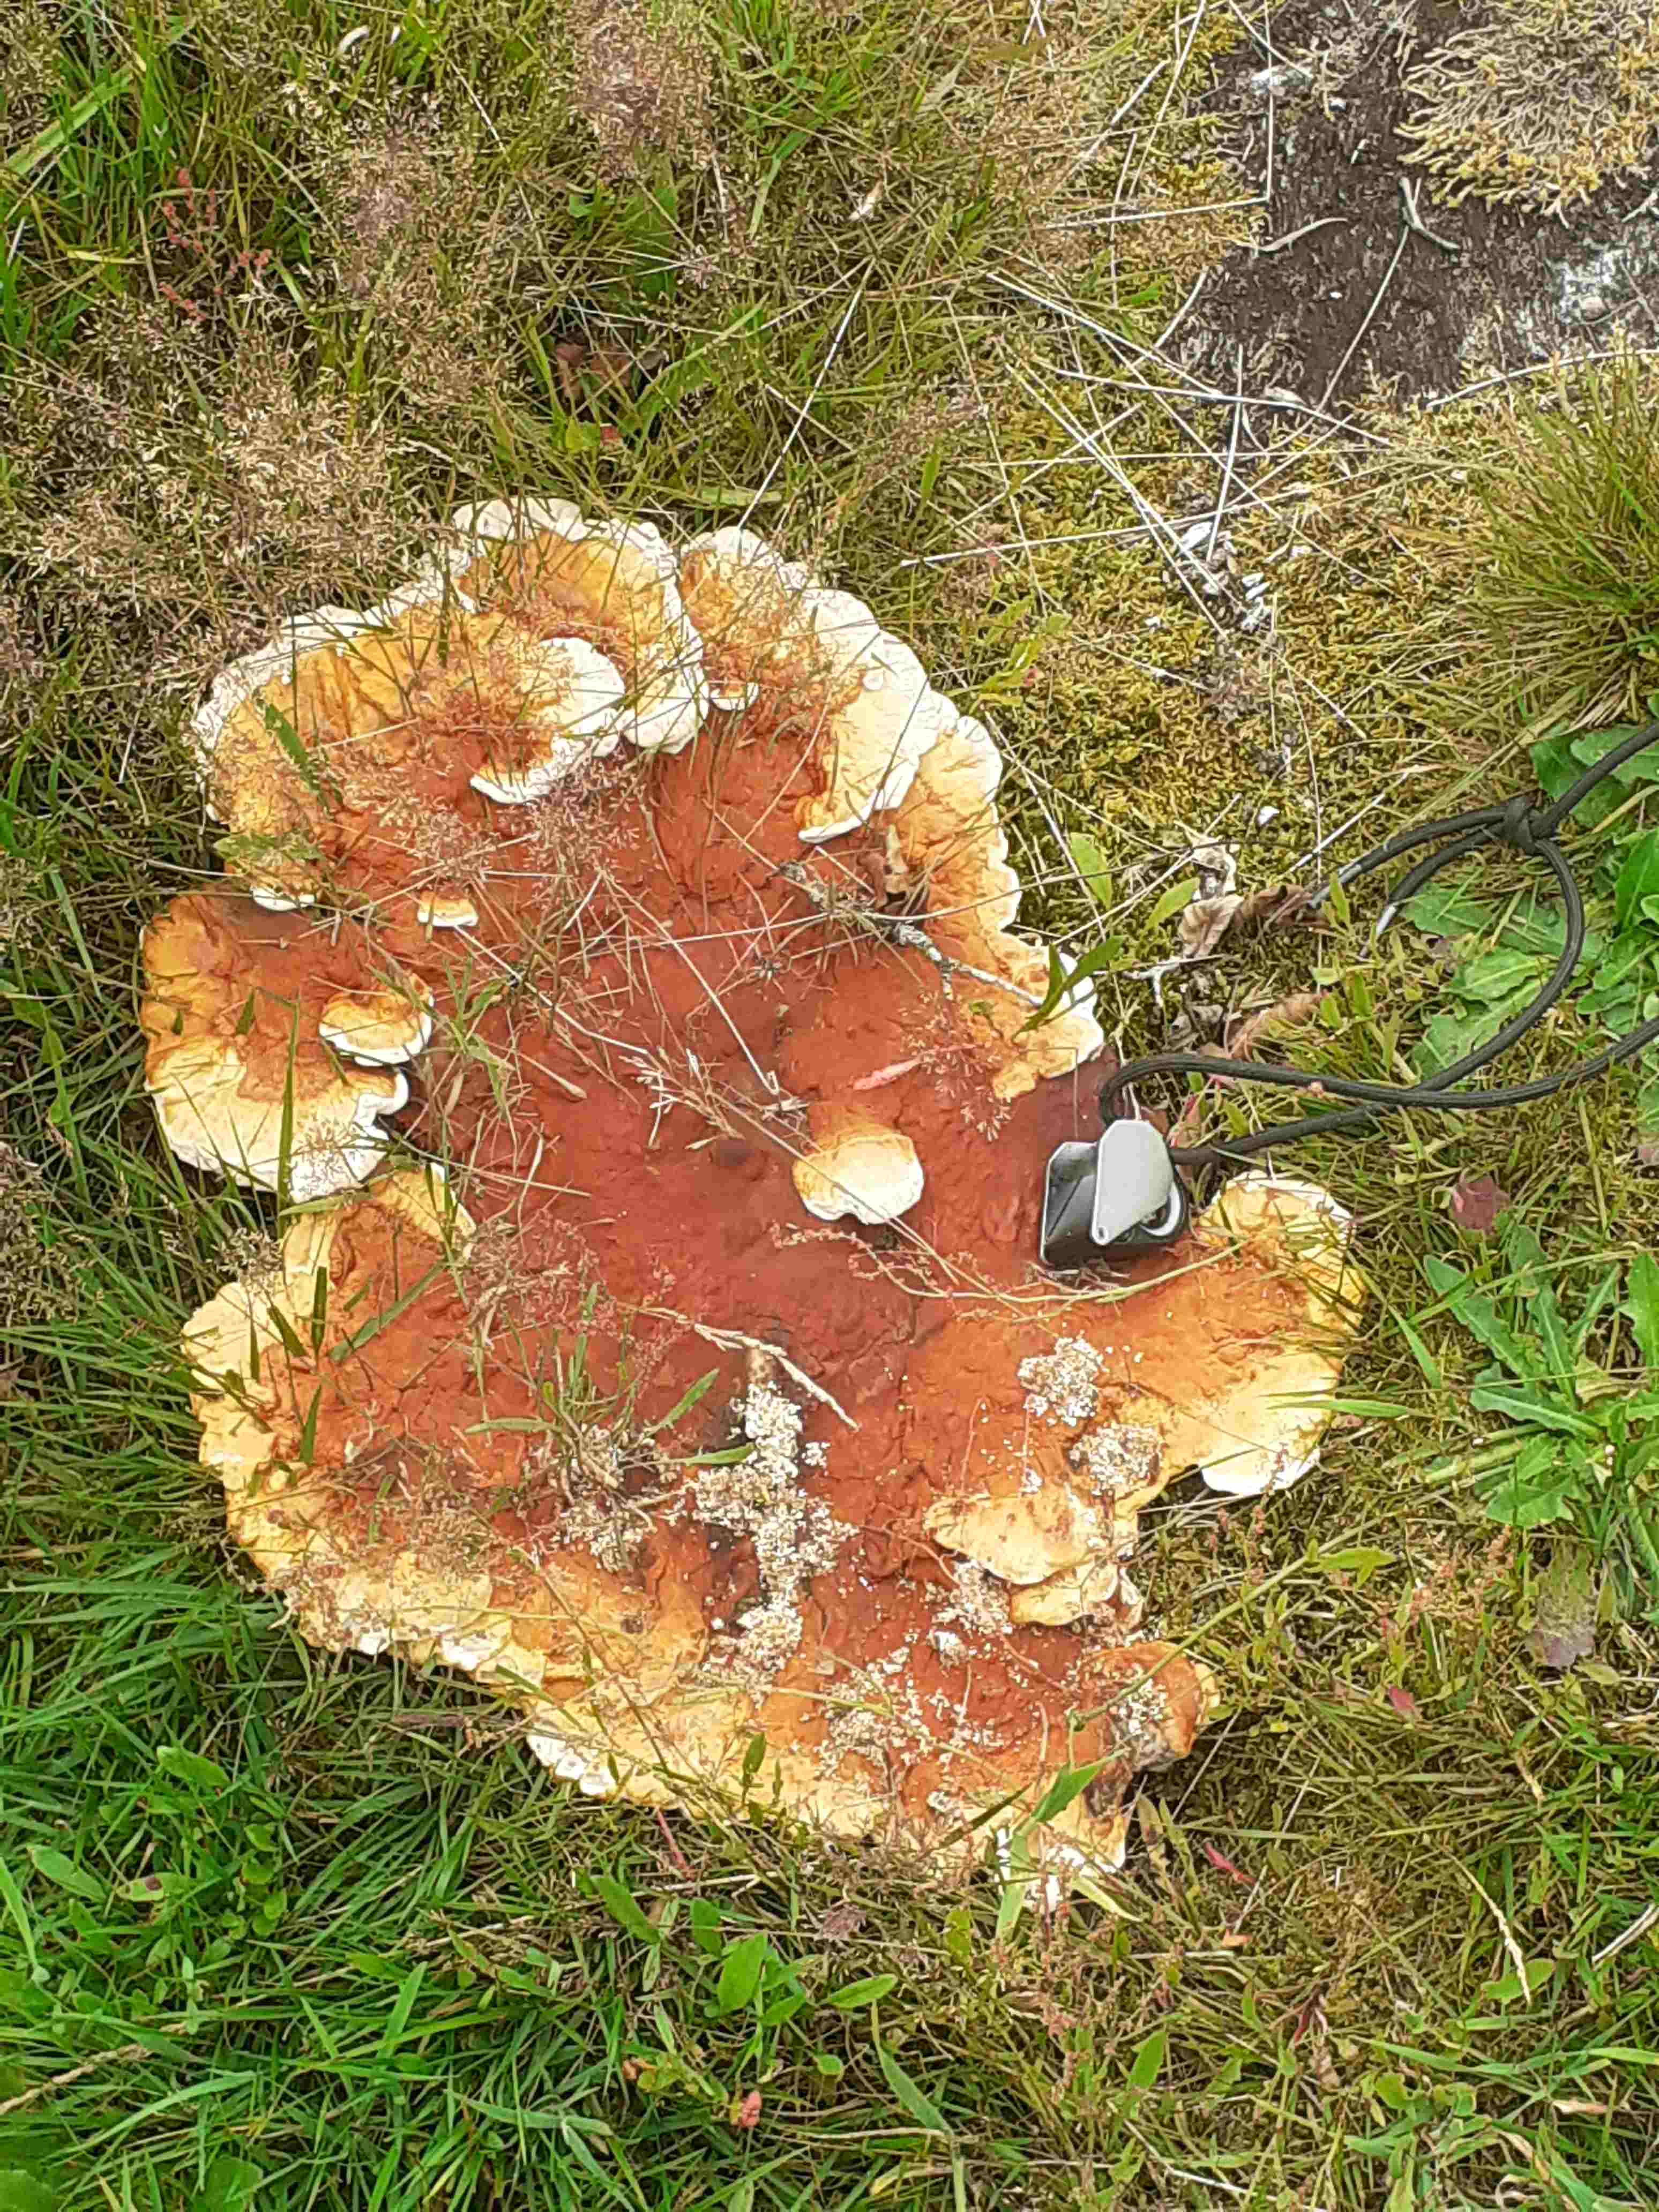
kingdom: Fungi
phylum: Basidiomycota
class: Agaricomycetes
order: Polyporales
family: Polyporaceae
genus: Ganoderma
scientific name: Ganoderma lucidum
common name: skinnende lakporesvamp
